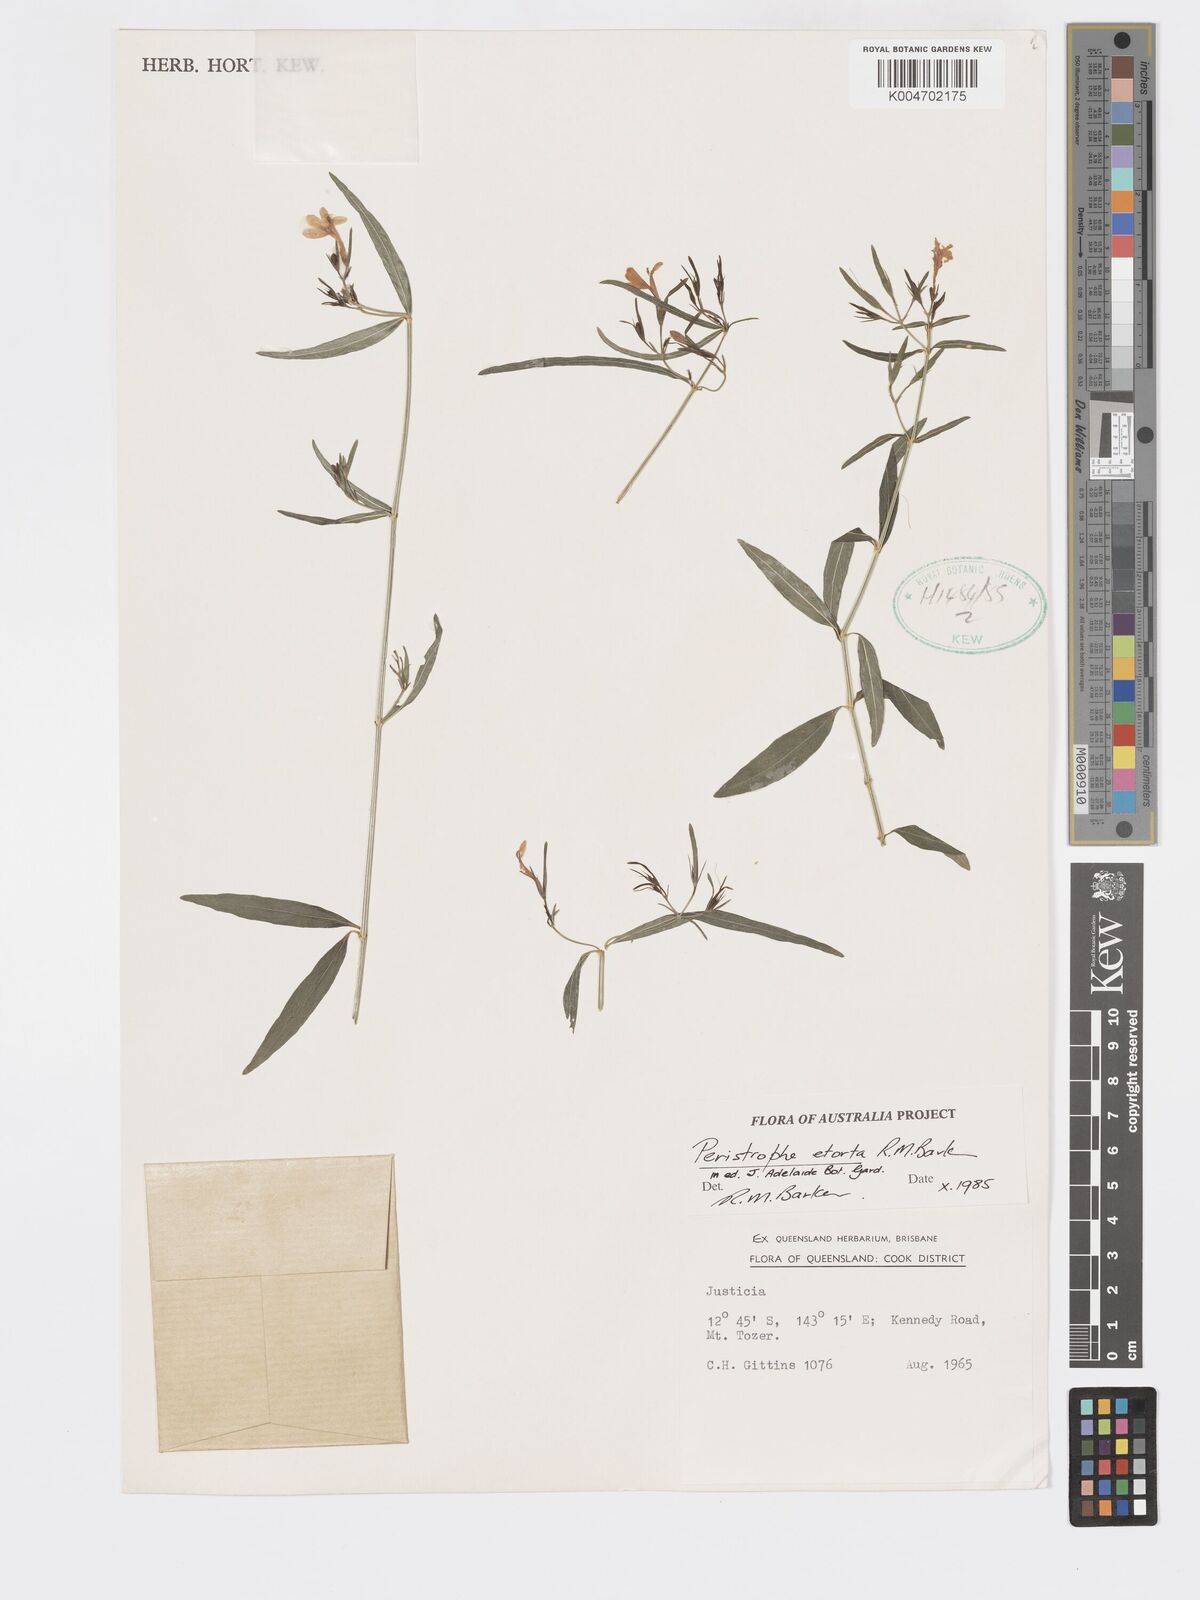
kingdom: Plantae
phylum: Tracheophyta
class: Magnoliopsida
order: Lamiales
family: Acanthaceae
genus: Dicliptera
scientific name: Dicliptera extenta
